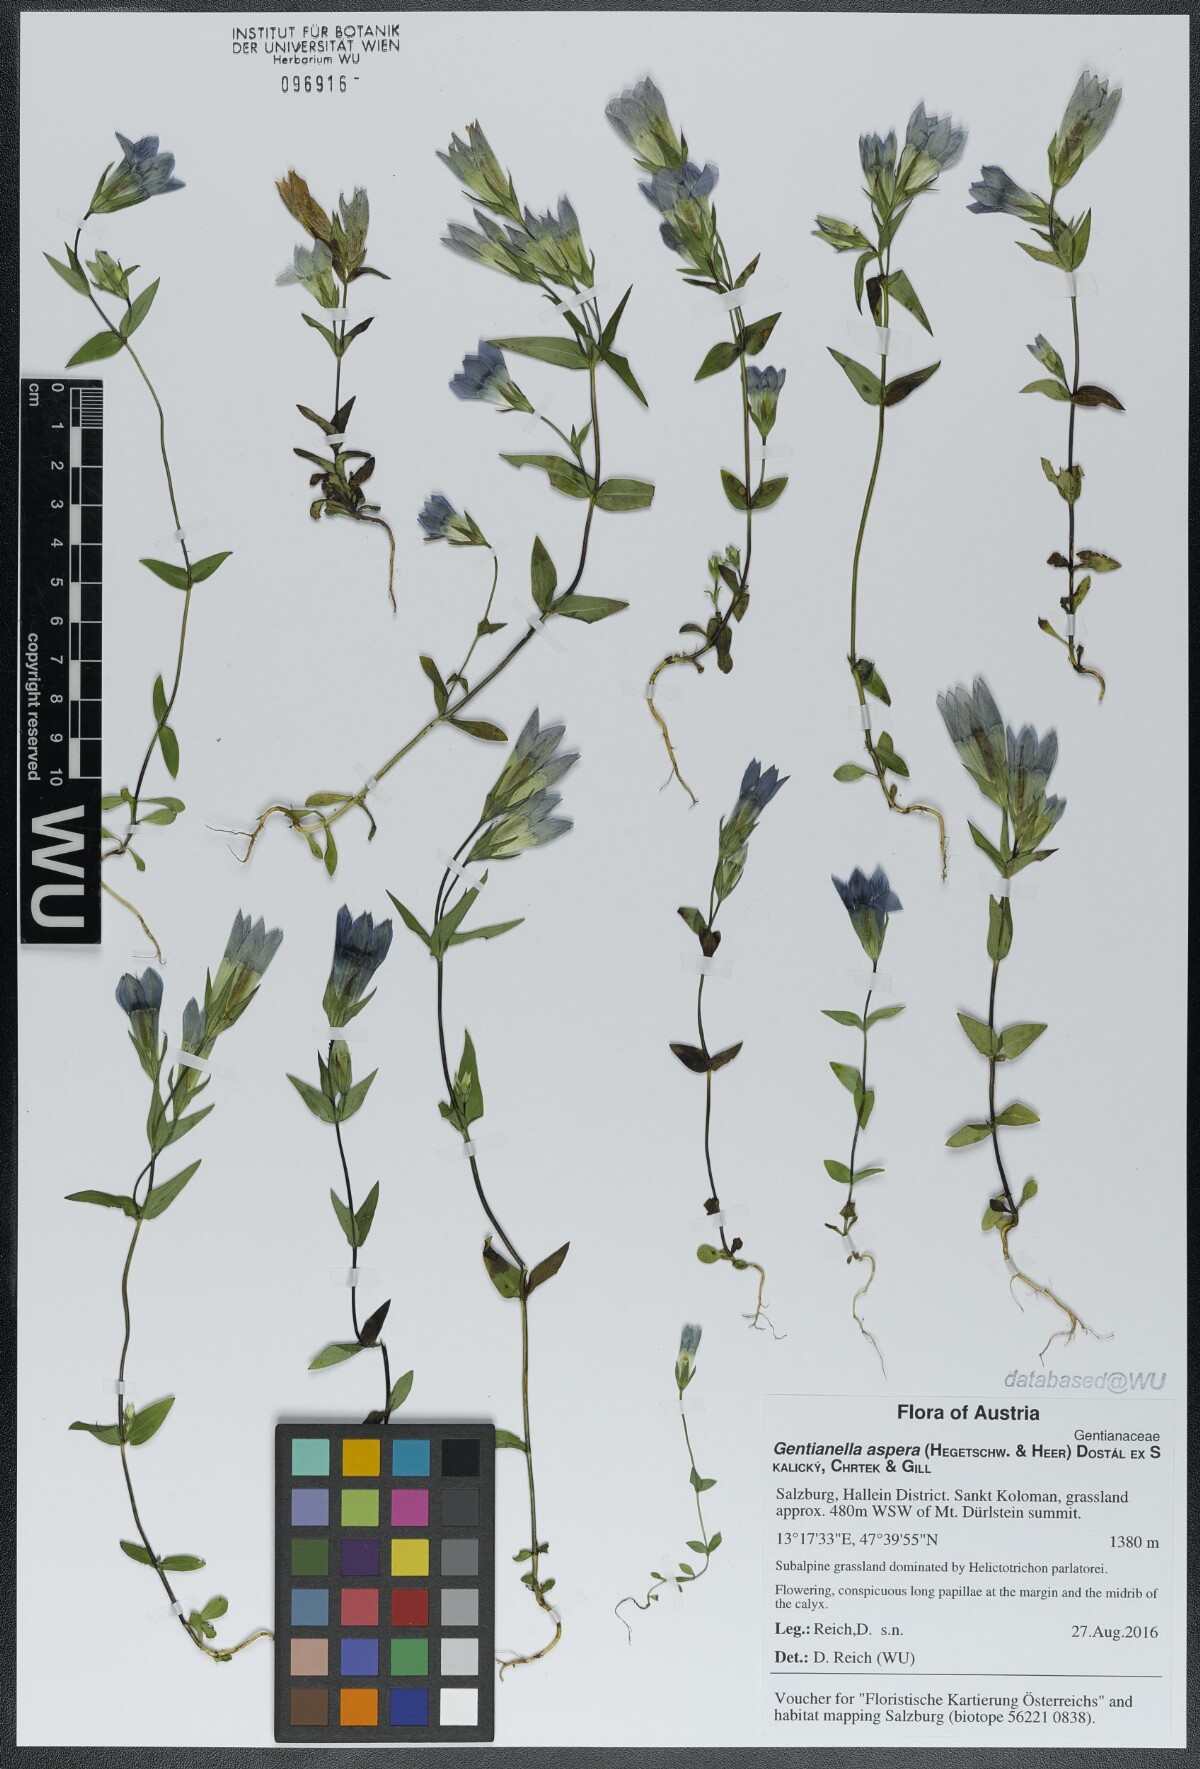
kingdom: Plantae
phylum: Tracheophyta
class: Magnoliopsida
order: Gentianales
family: Gentianaceae
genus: Gentianella
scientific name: Gentianella obtusifolia
